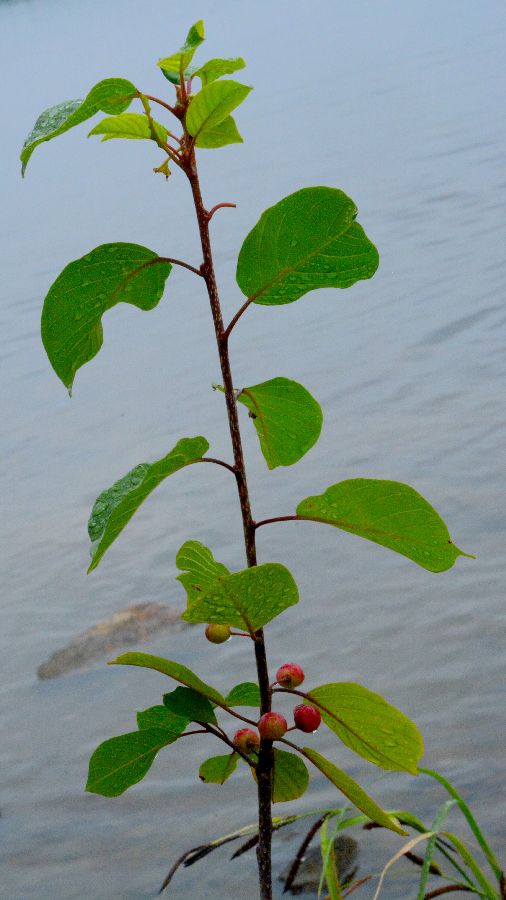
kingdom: Plantae
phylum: Tracheophyta
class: Magnoliopsida
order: Rosales
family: Rhamnaceae
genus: Frangula
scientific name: Frangula alnus
